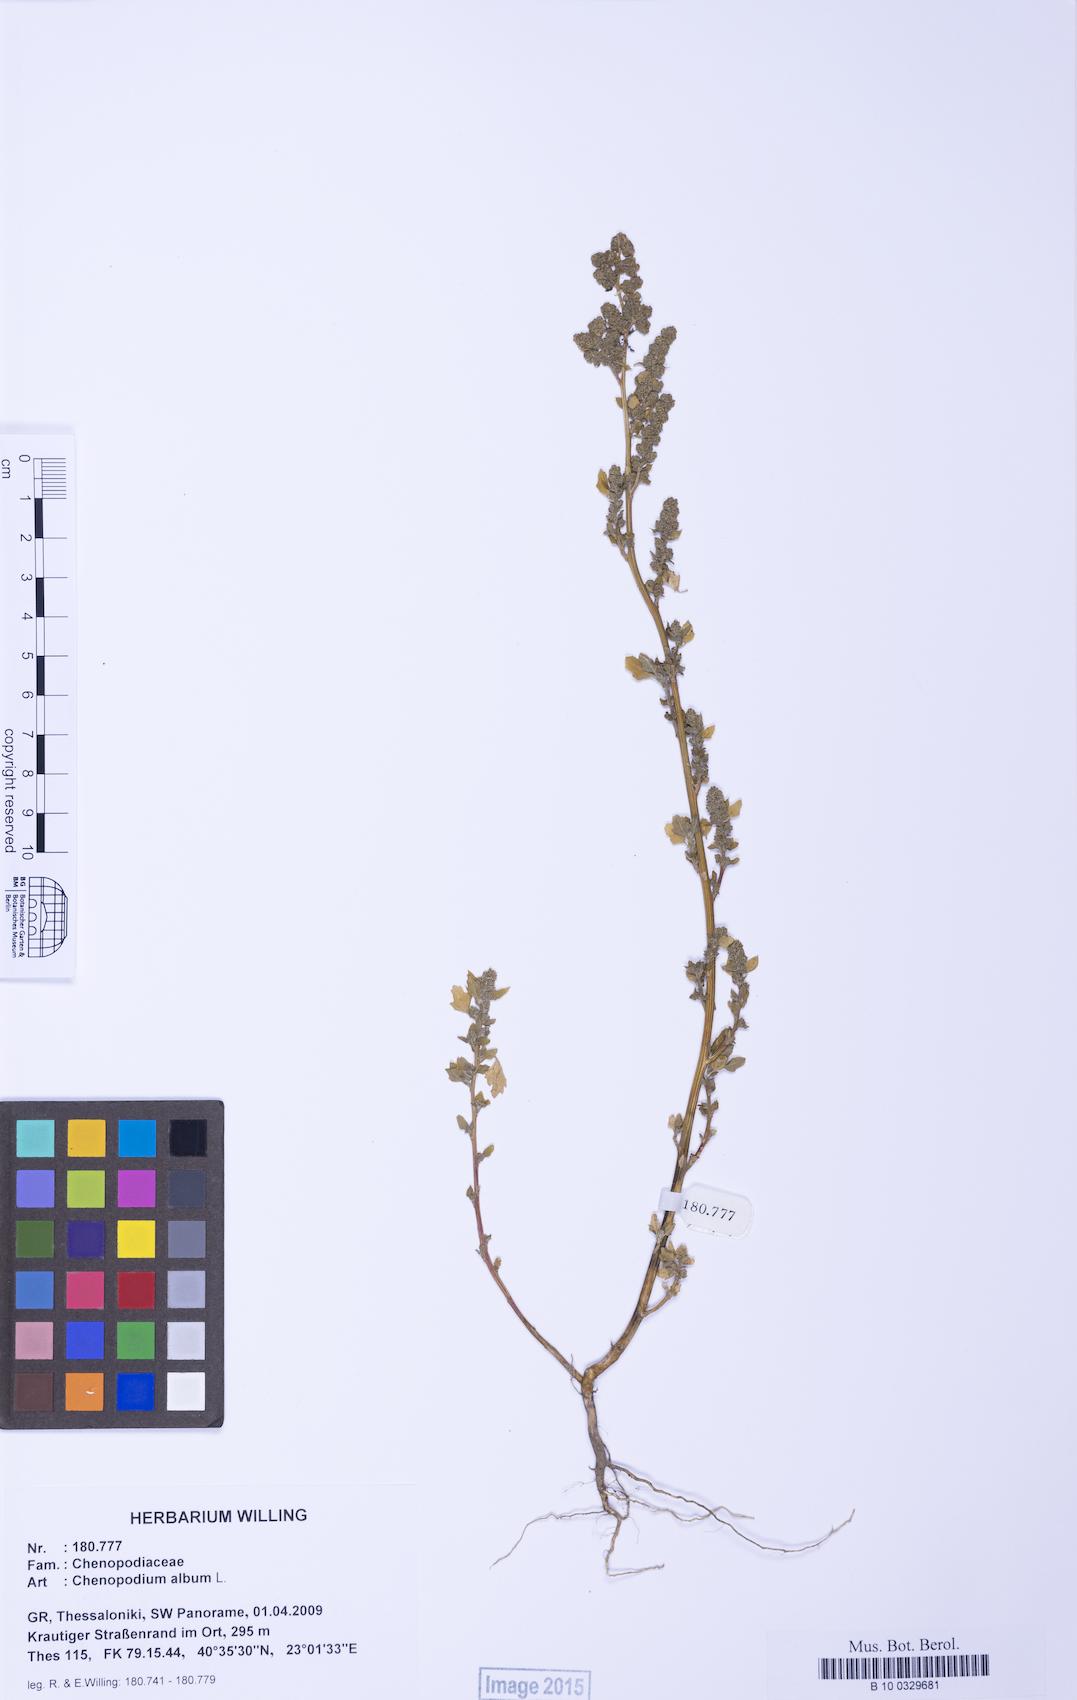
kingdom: Plantae
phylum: Tracheophyta
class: Magnoliopsida
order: Caryophyllales
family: Amaranthaceae
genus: Chenopodium
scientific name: Chenopodium album
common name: Fat-hen
